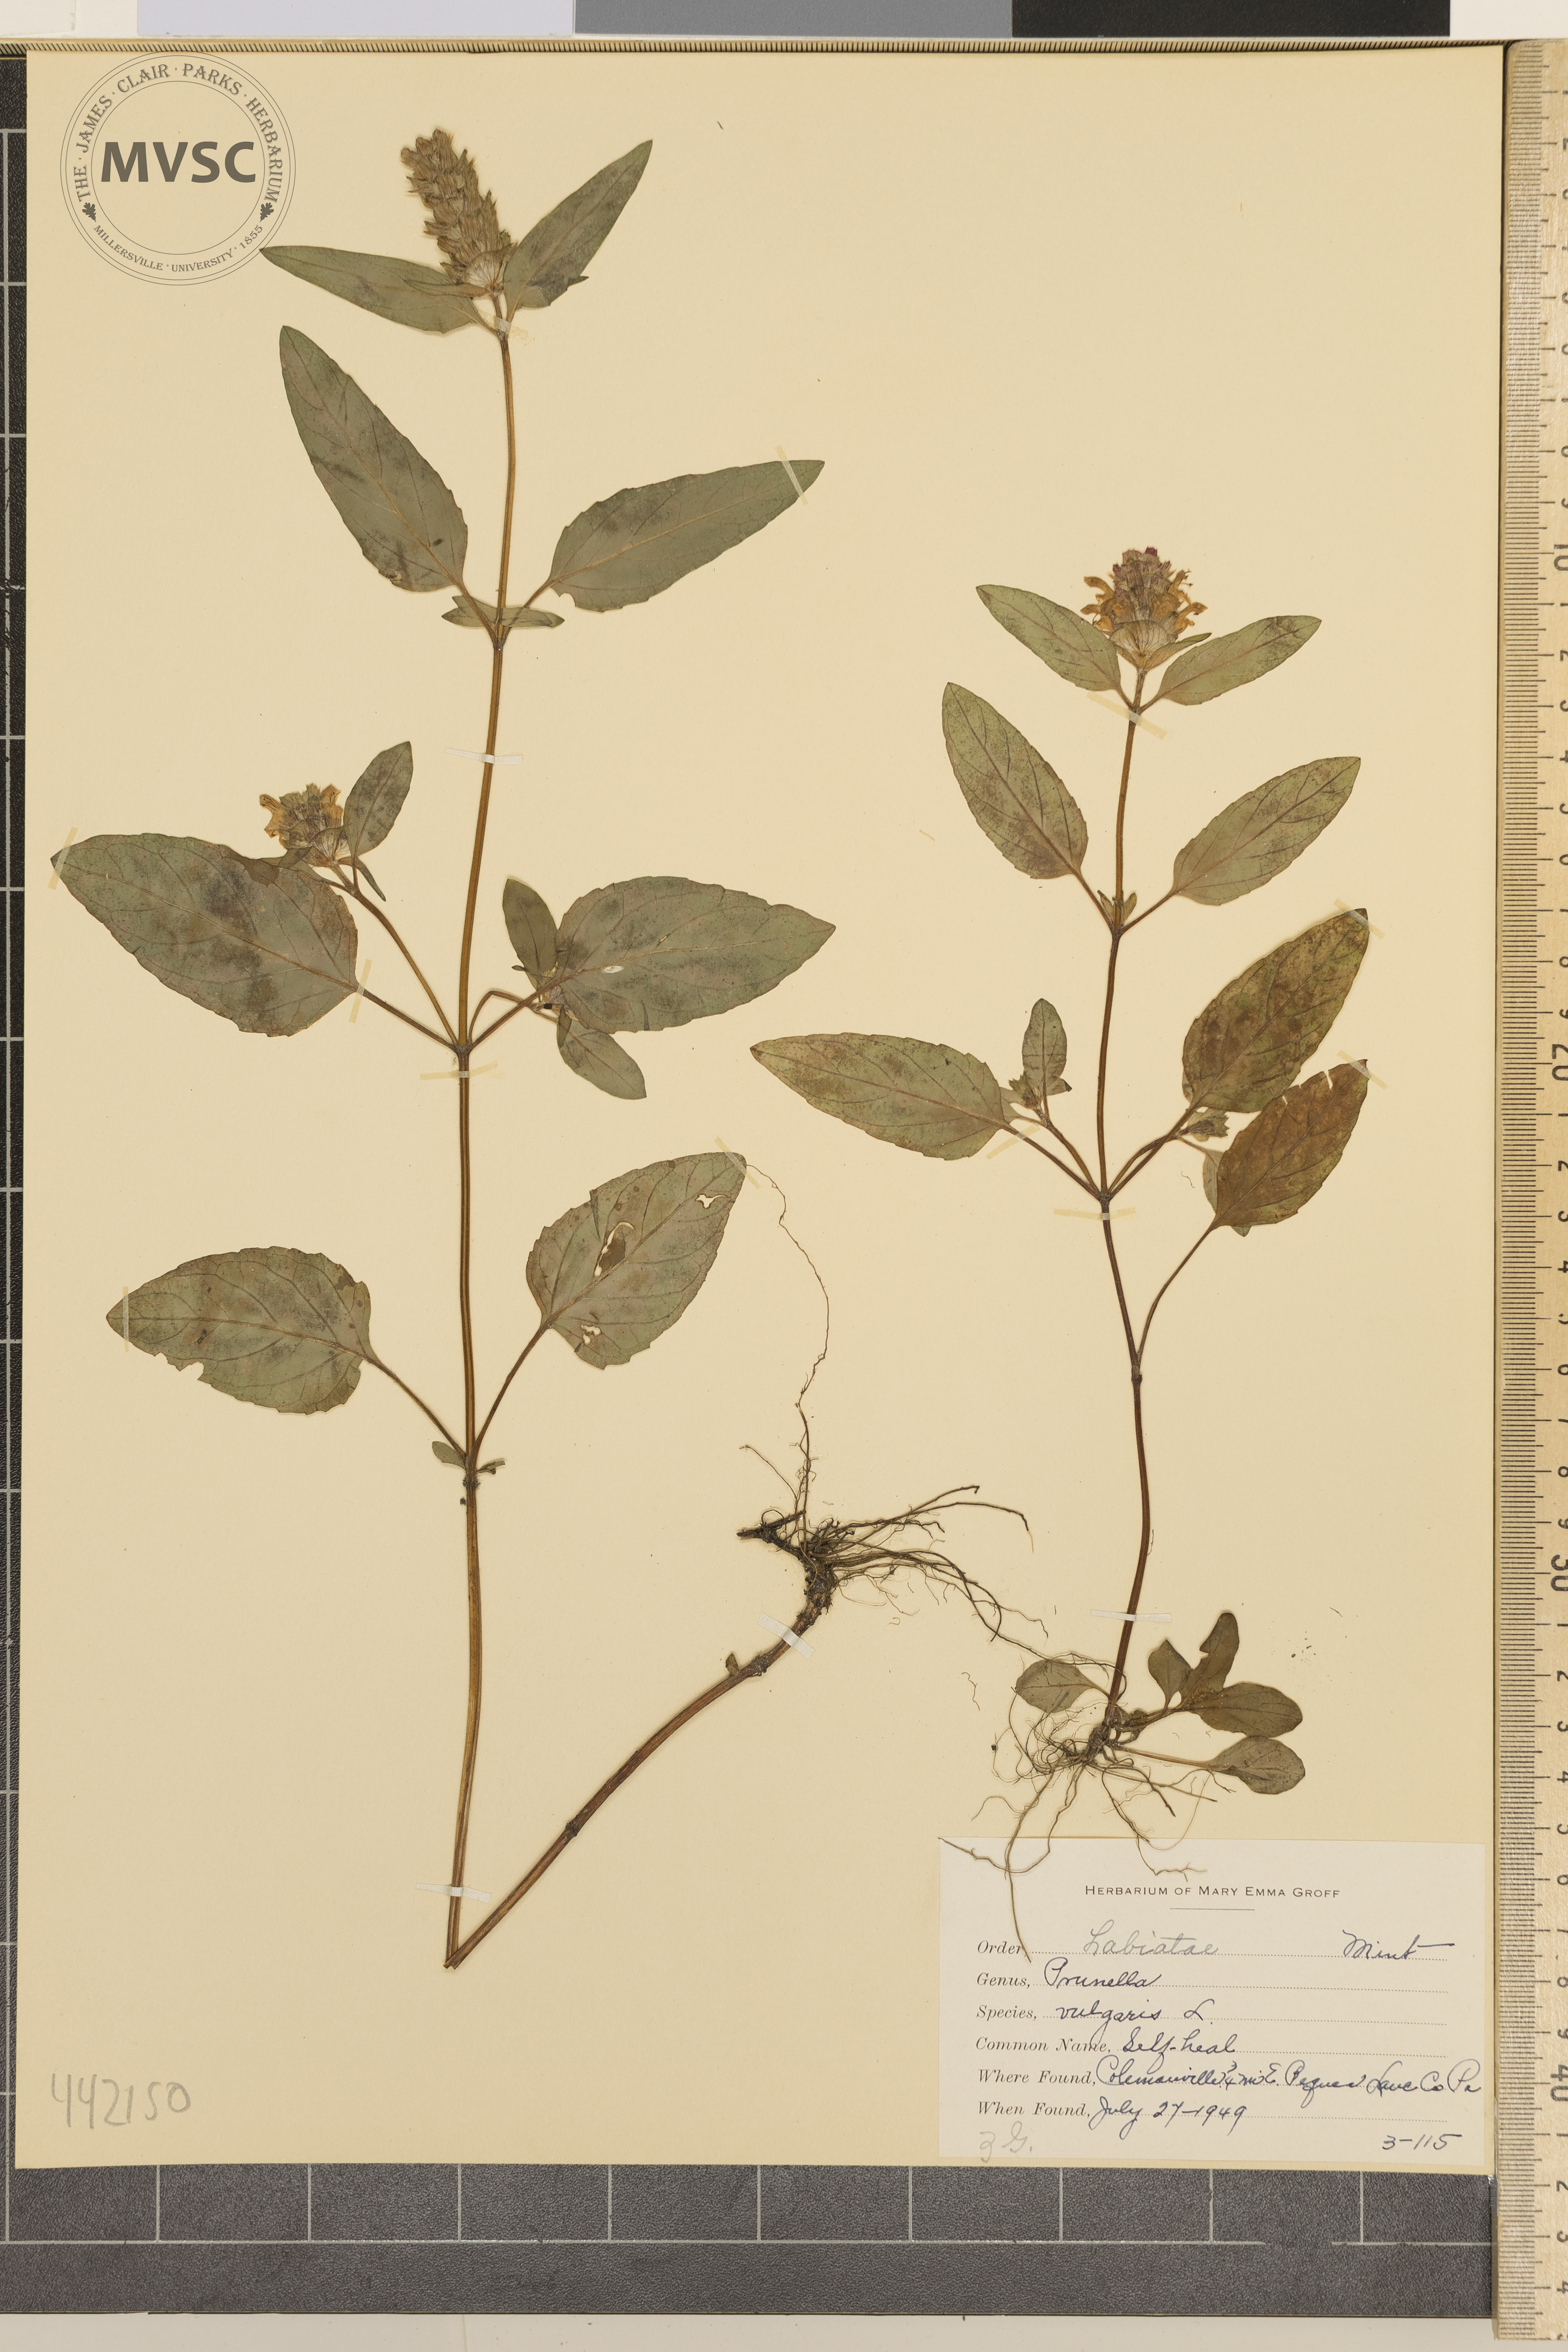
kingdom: Plantae
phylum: Tracheophyta
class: Magnoliopsida
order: Lamiales
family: Lamiaceae
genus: Prunella
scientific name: Prunella vulgaris
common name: Self-heal
